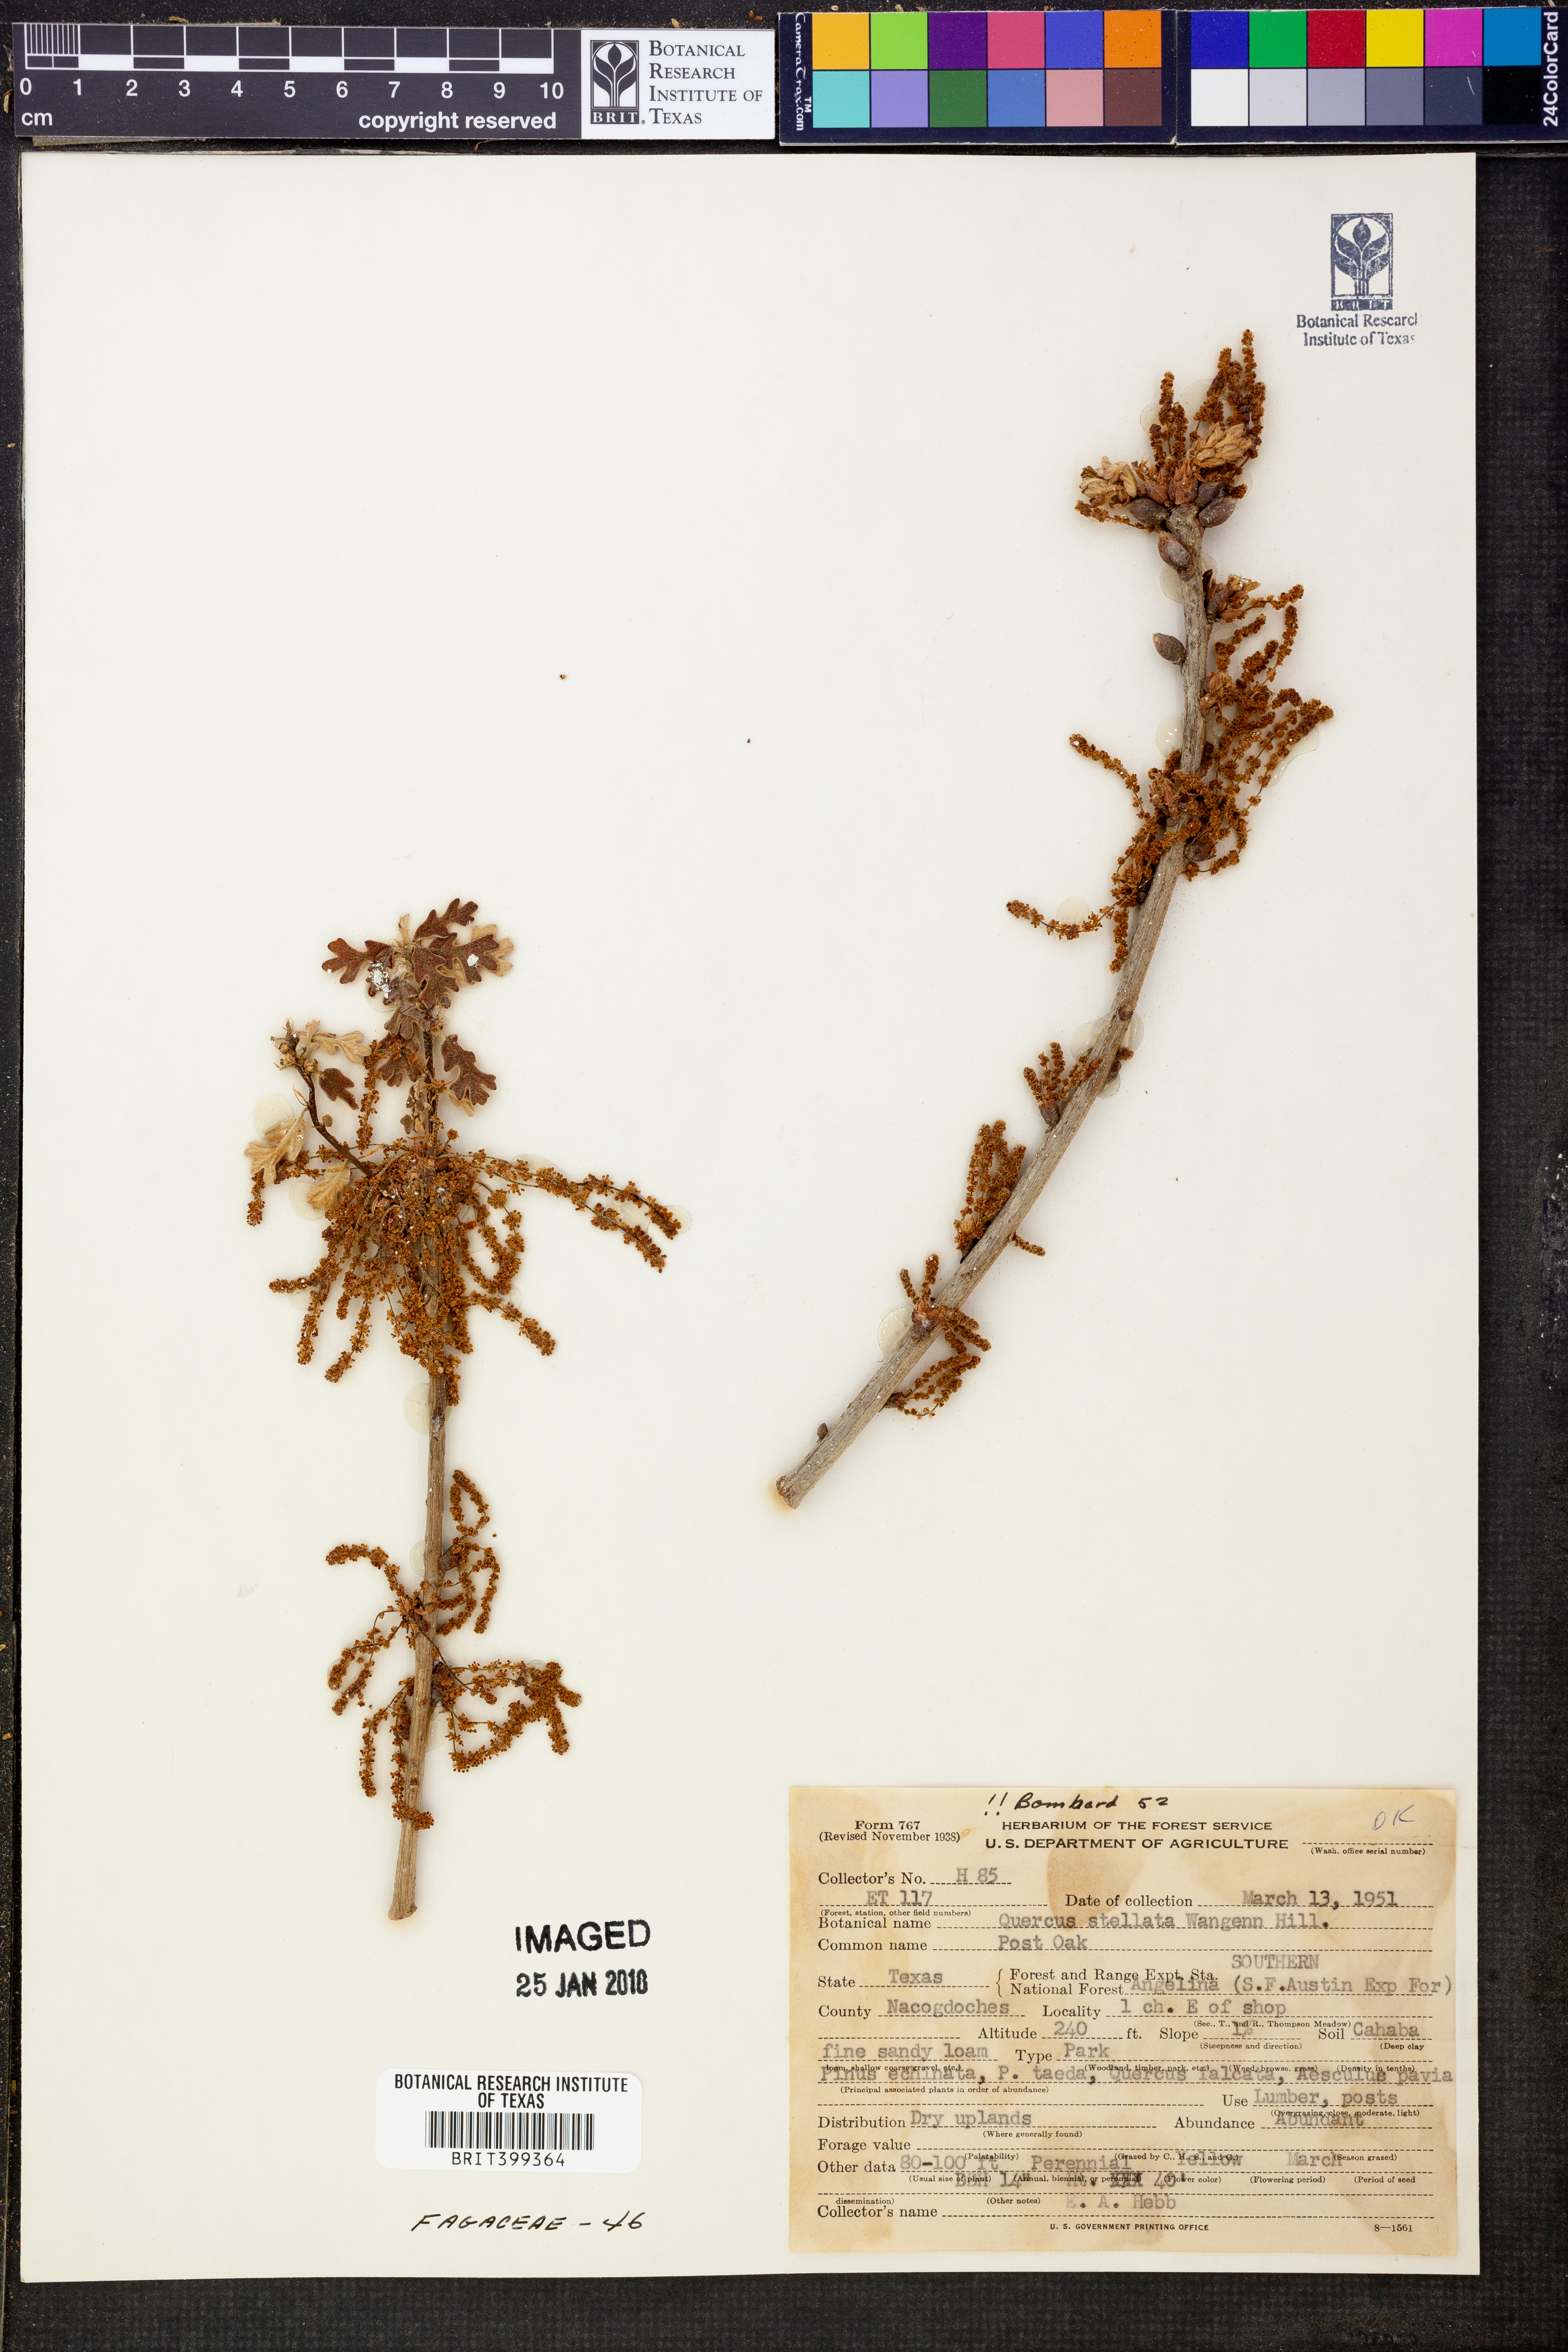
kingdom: Plantae
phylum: Tracheophyta
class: Magnoliopsida
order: Fagales
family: Fagaceae
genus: Quercus
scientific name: Quercus stellata
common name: Post oak
